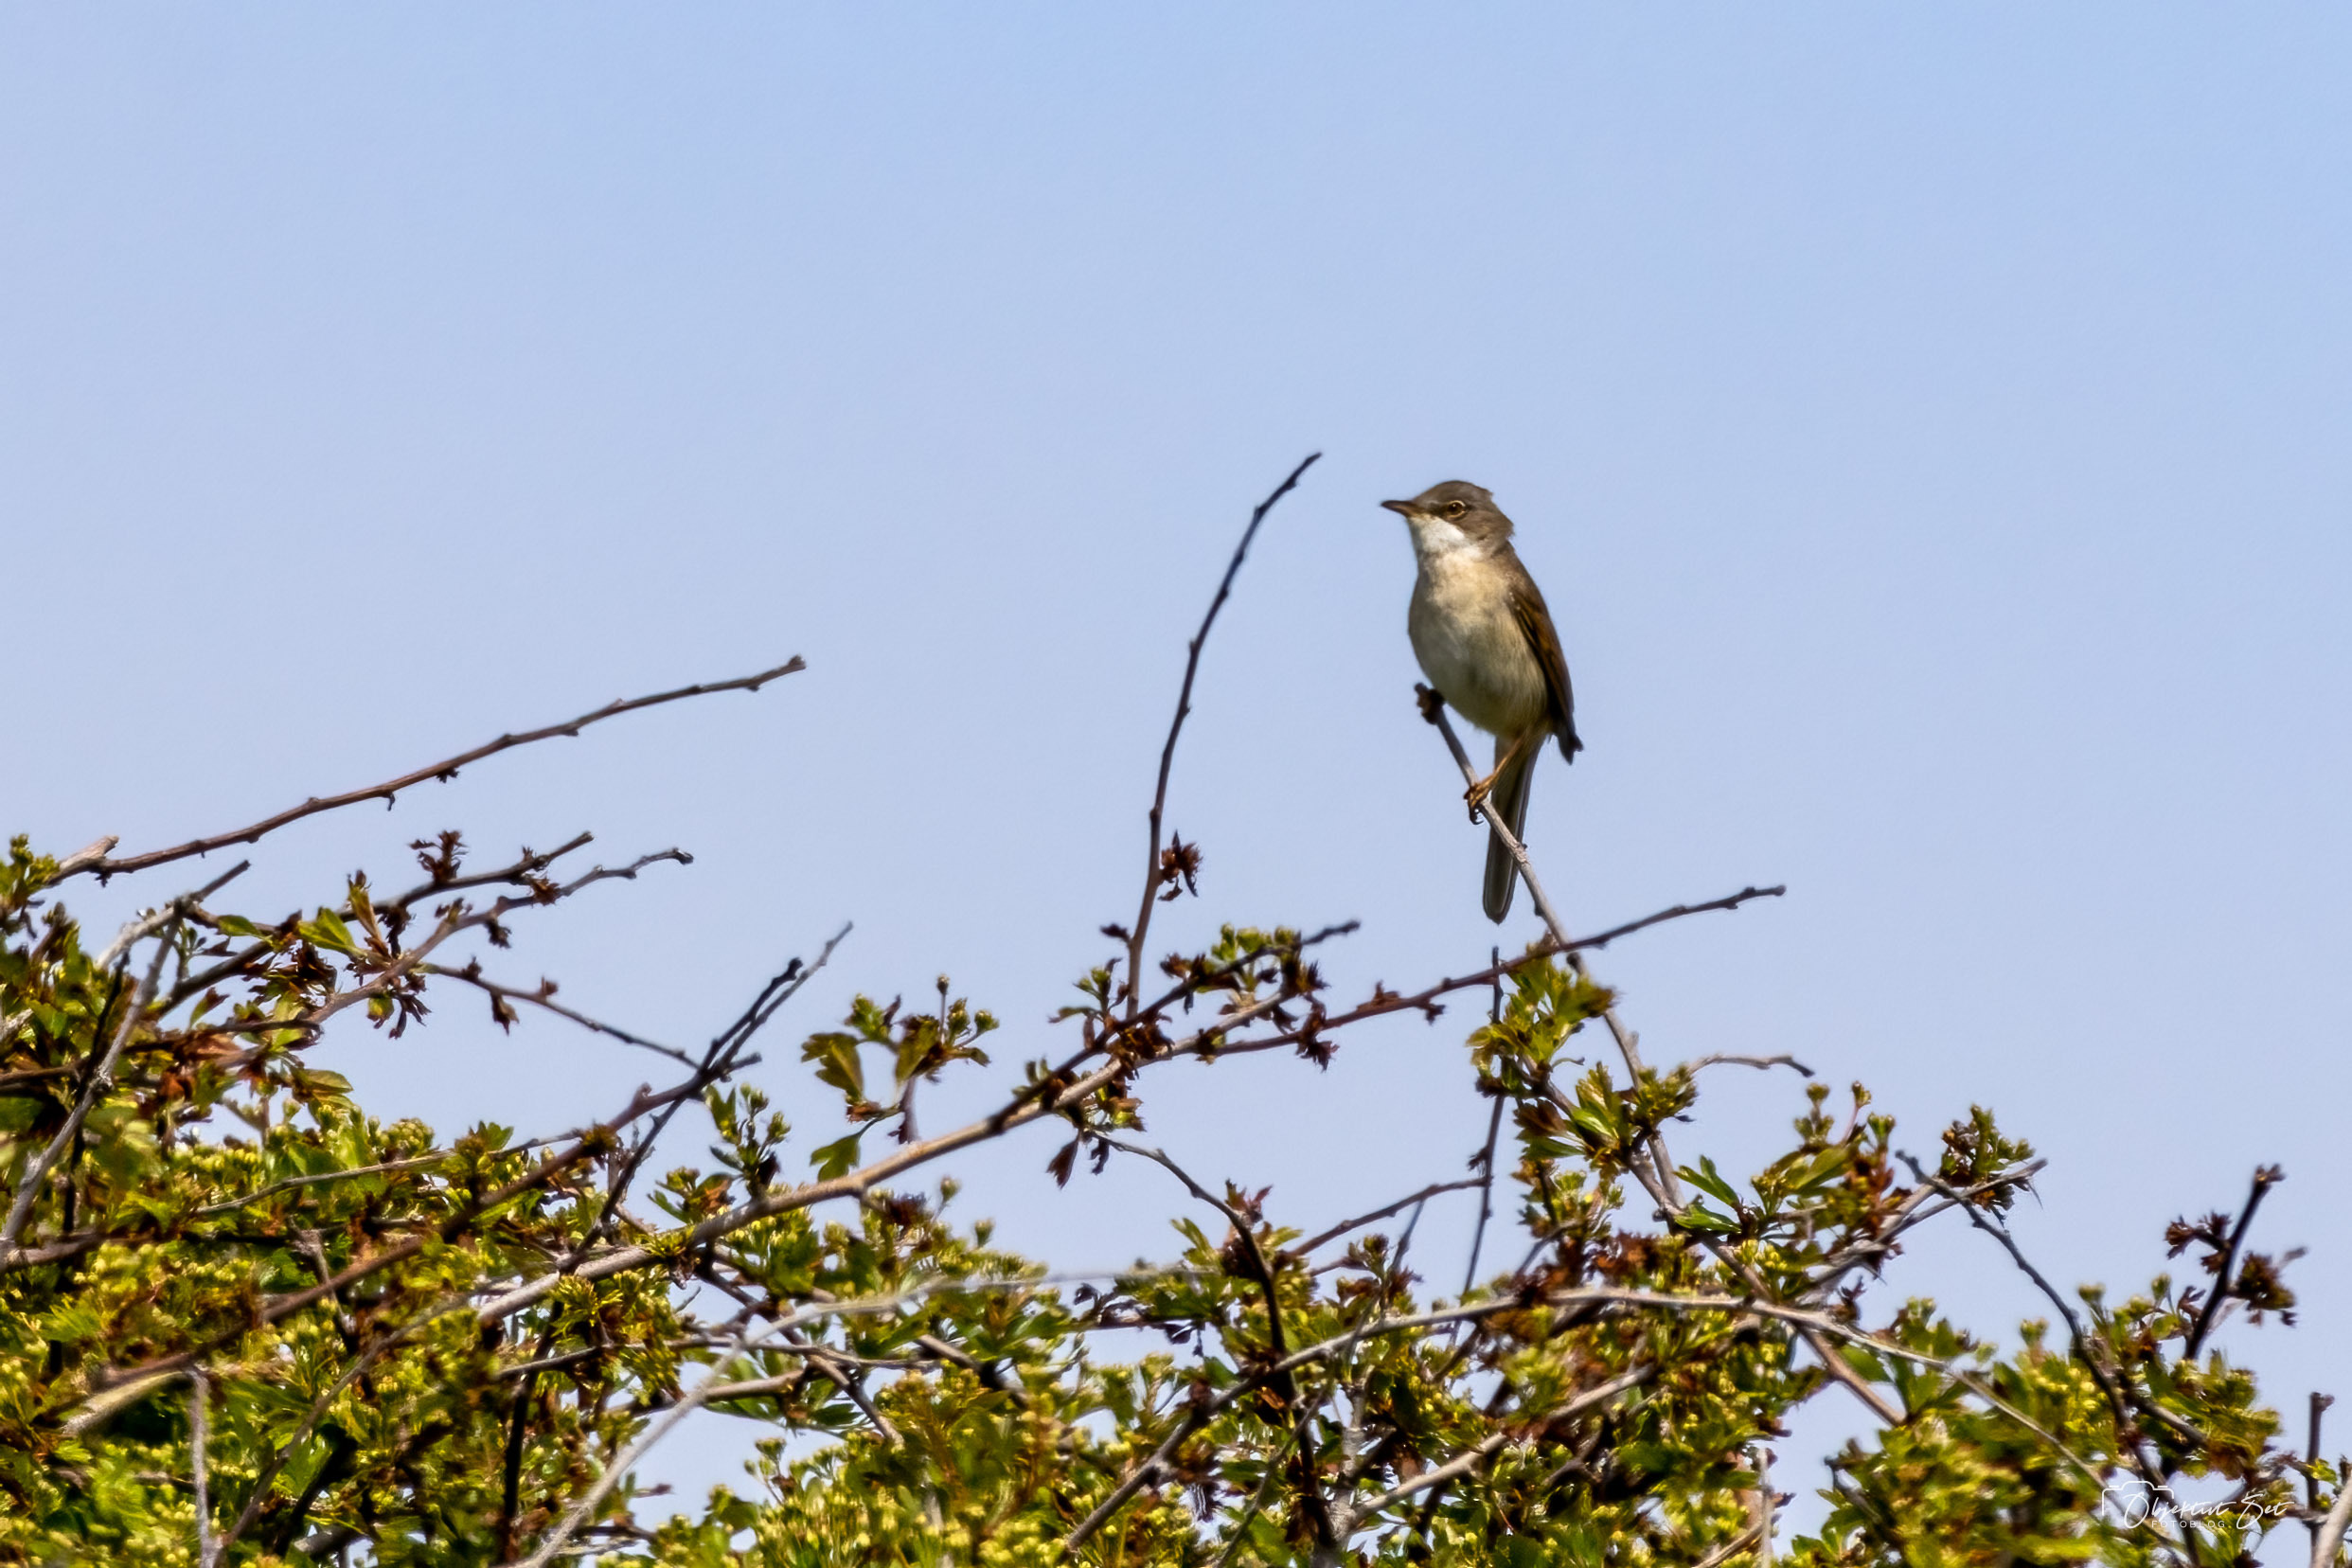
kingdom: Animalia
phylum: Chordata
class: Aves
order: Passeriformes
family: Sylviidae
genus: Sylvia
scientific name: Sylvia communis
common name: Tornsanger
